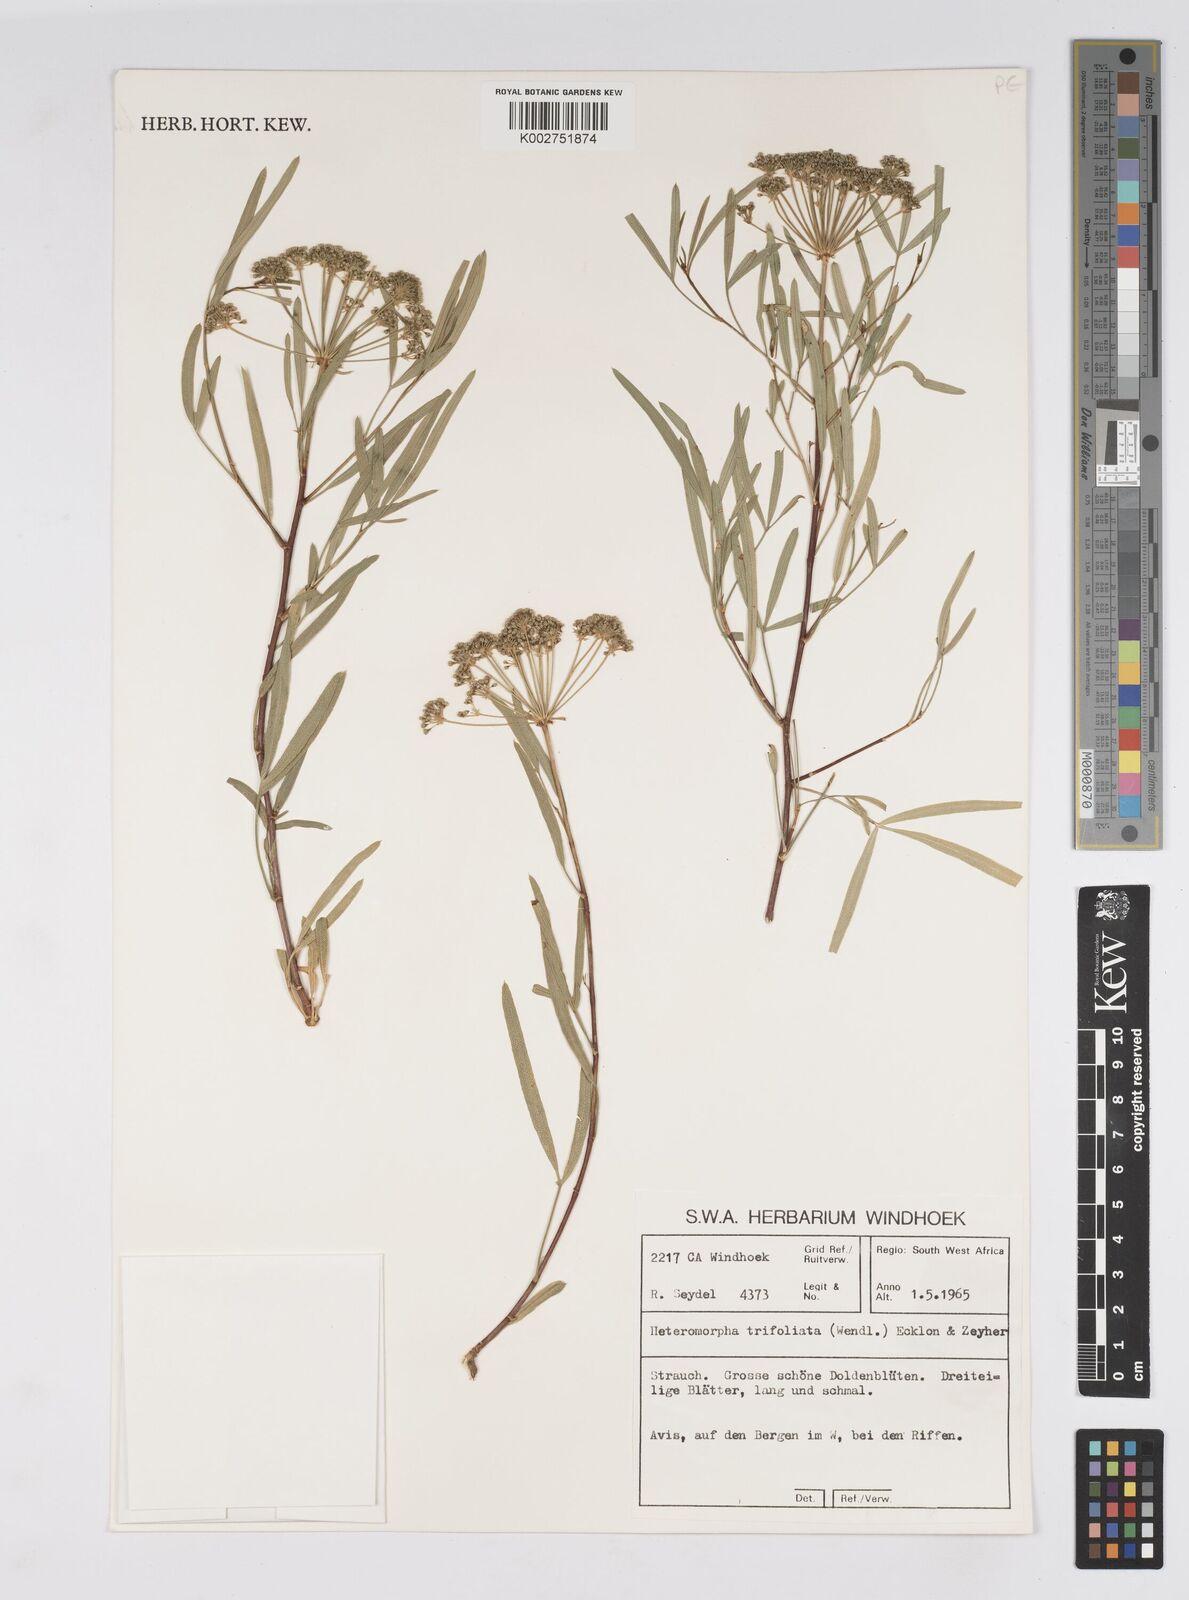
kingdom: Plantae
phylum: Tracheophyta
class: Magnoliopsida
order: Apiales
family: Apiaceae
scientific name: Apiaceae
